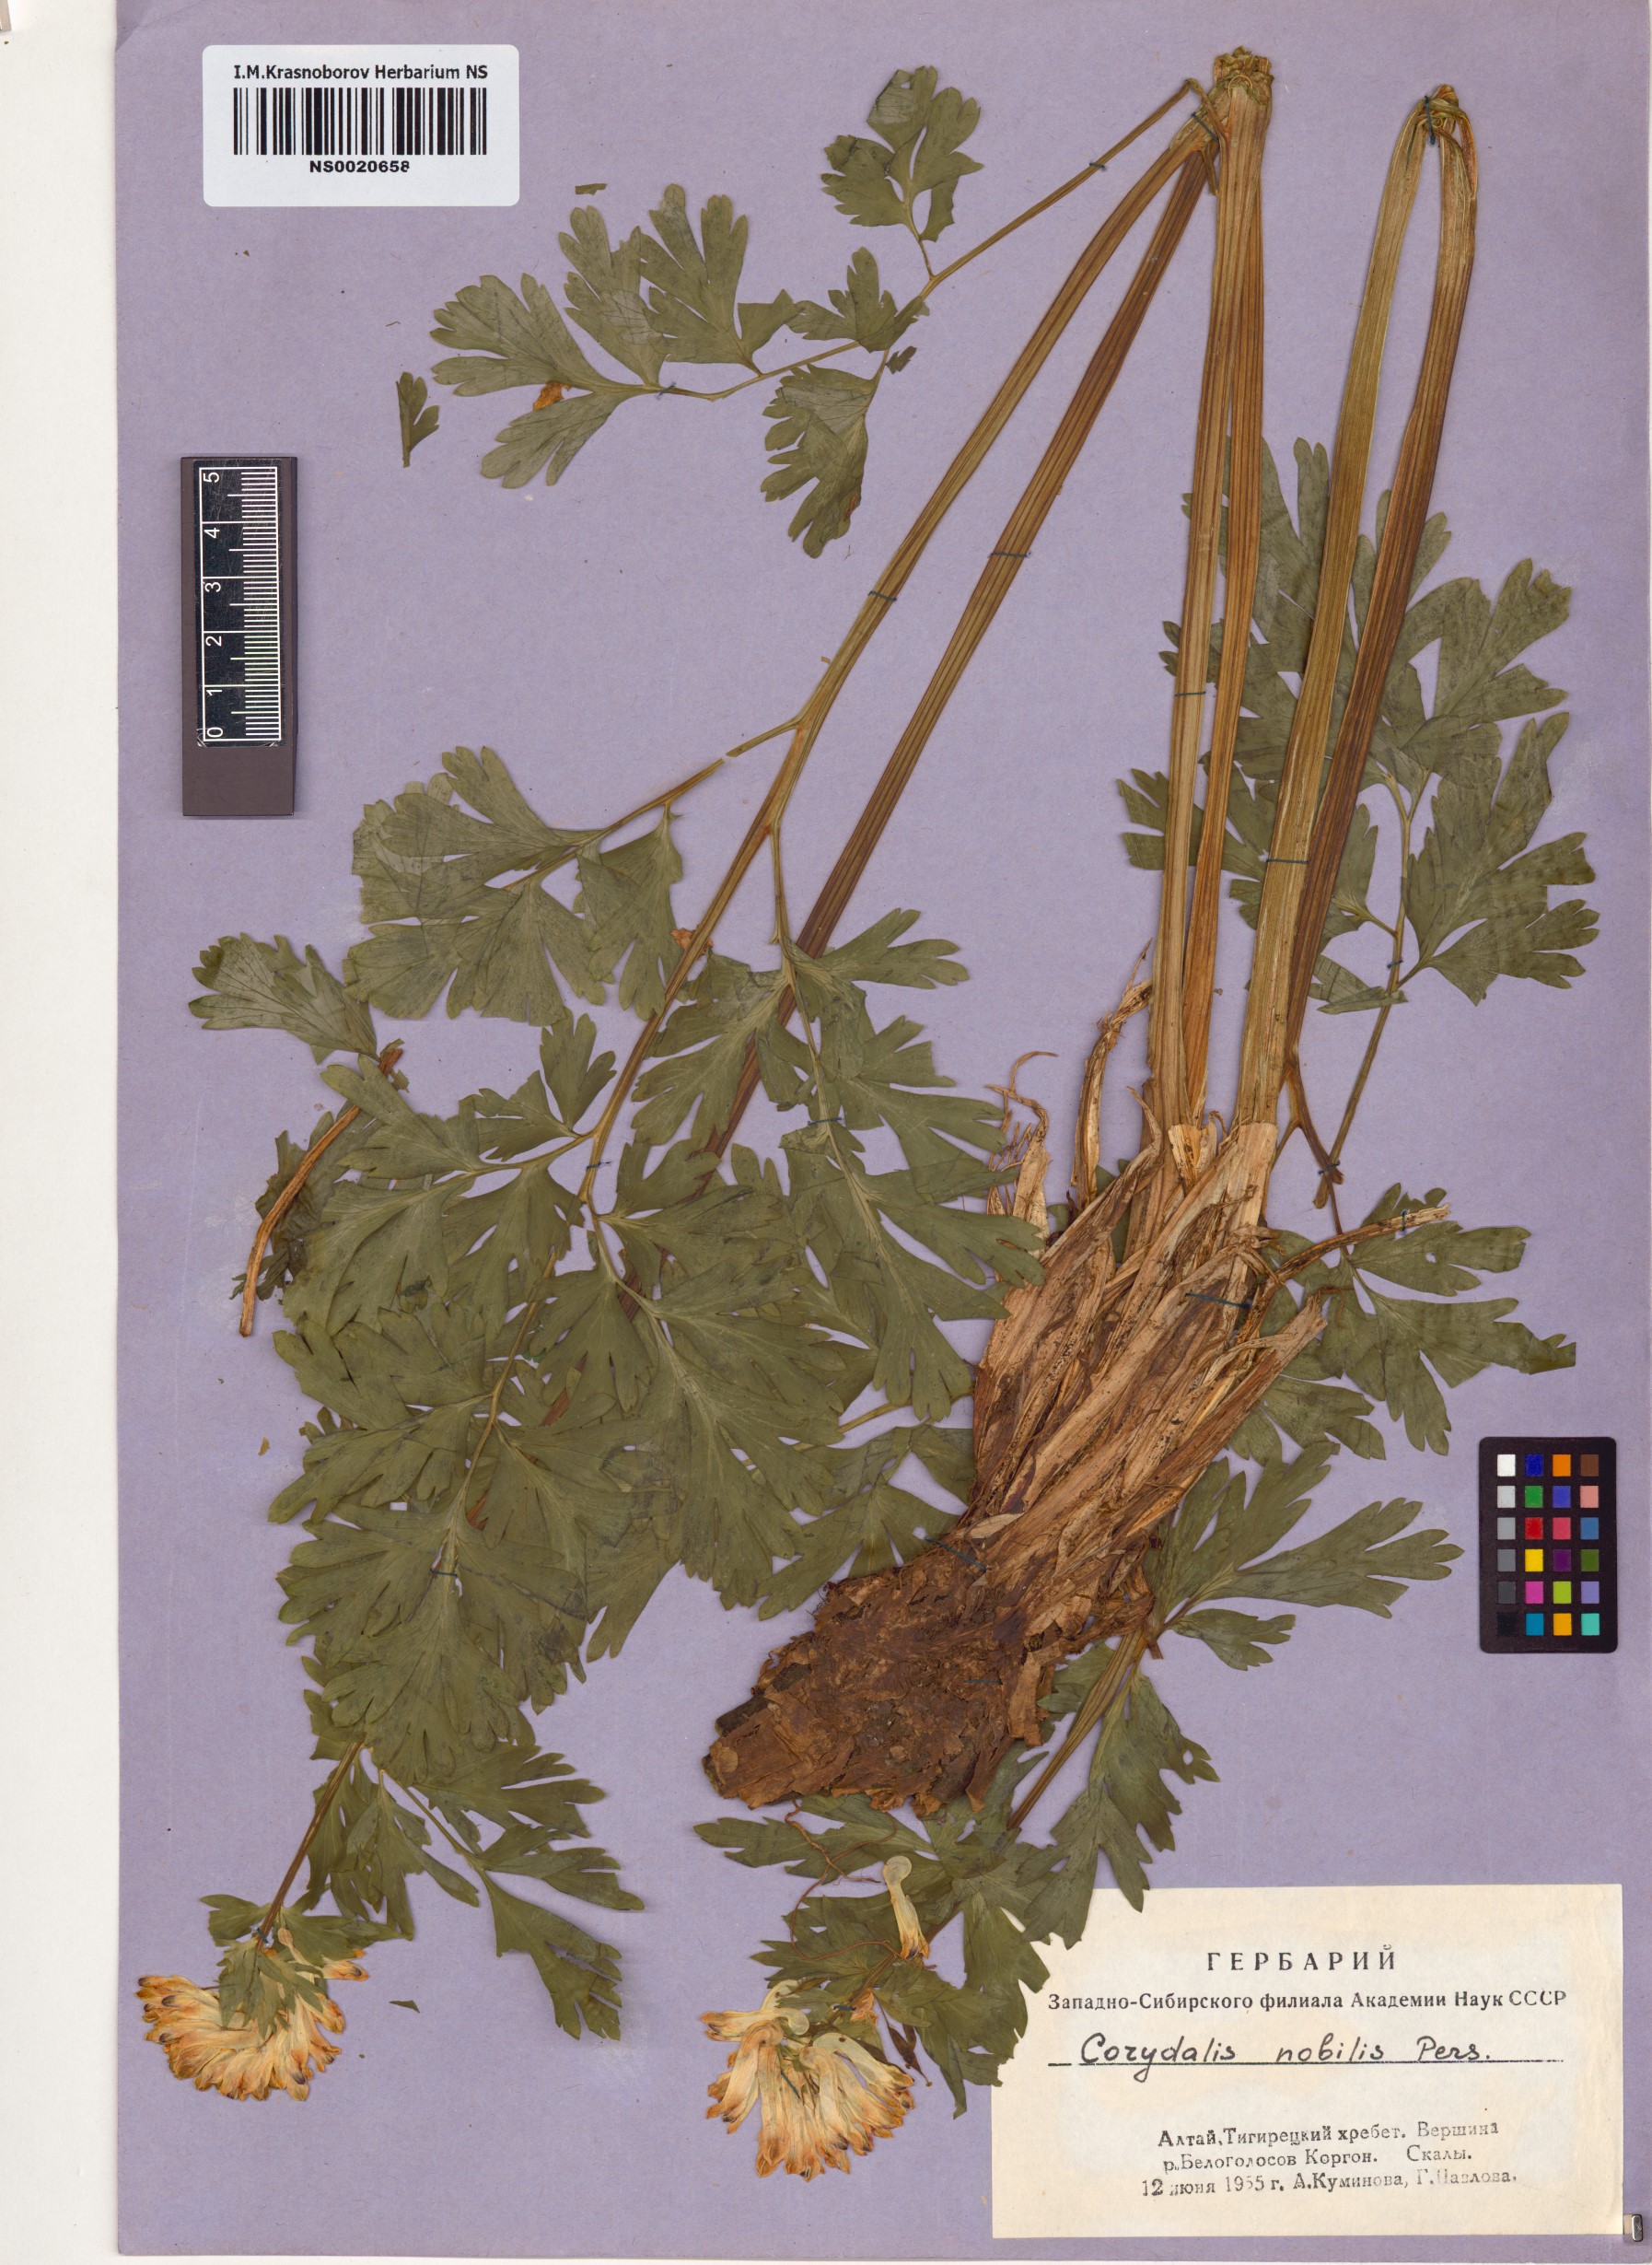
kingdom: Plantae
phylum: Tracheophyta
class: Magnoliopsida
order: Ranunculales
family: Papaveraceae
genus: Corydalis
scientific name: Corydalis nobilis
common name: Siberian corydalis
